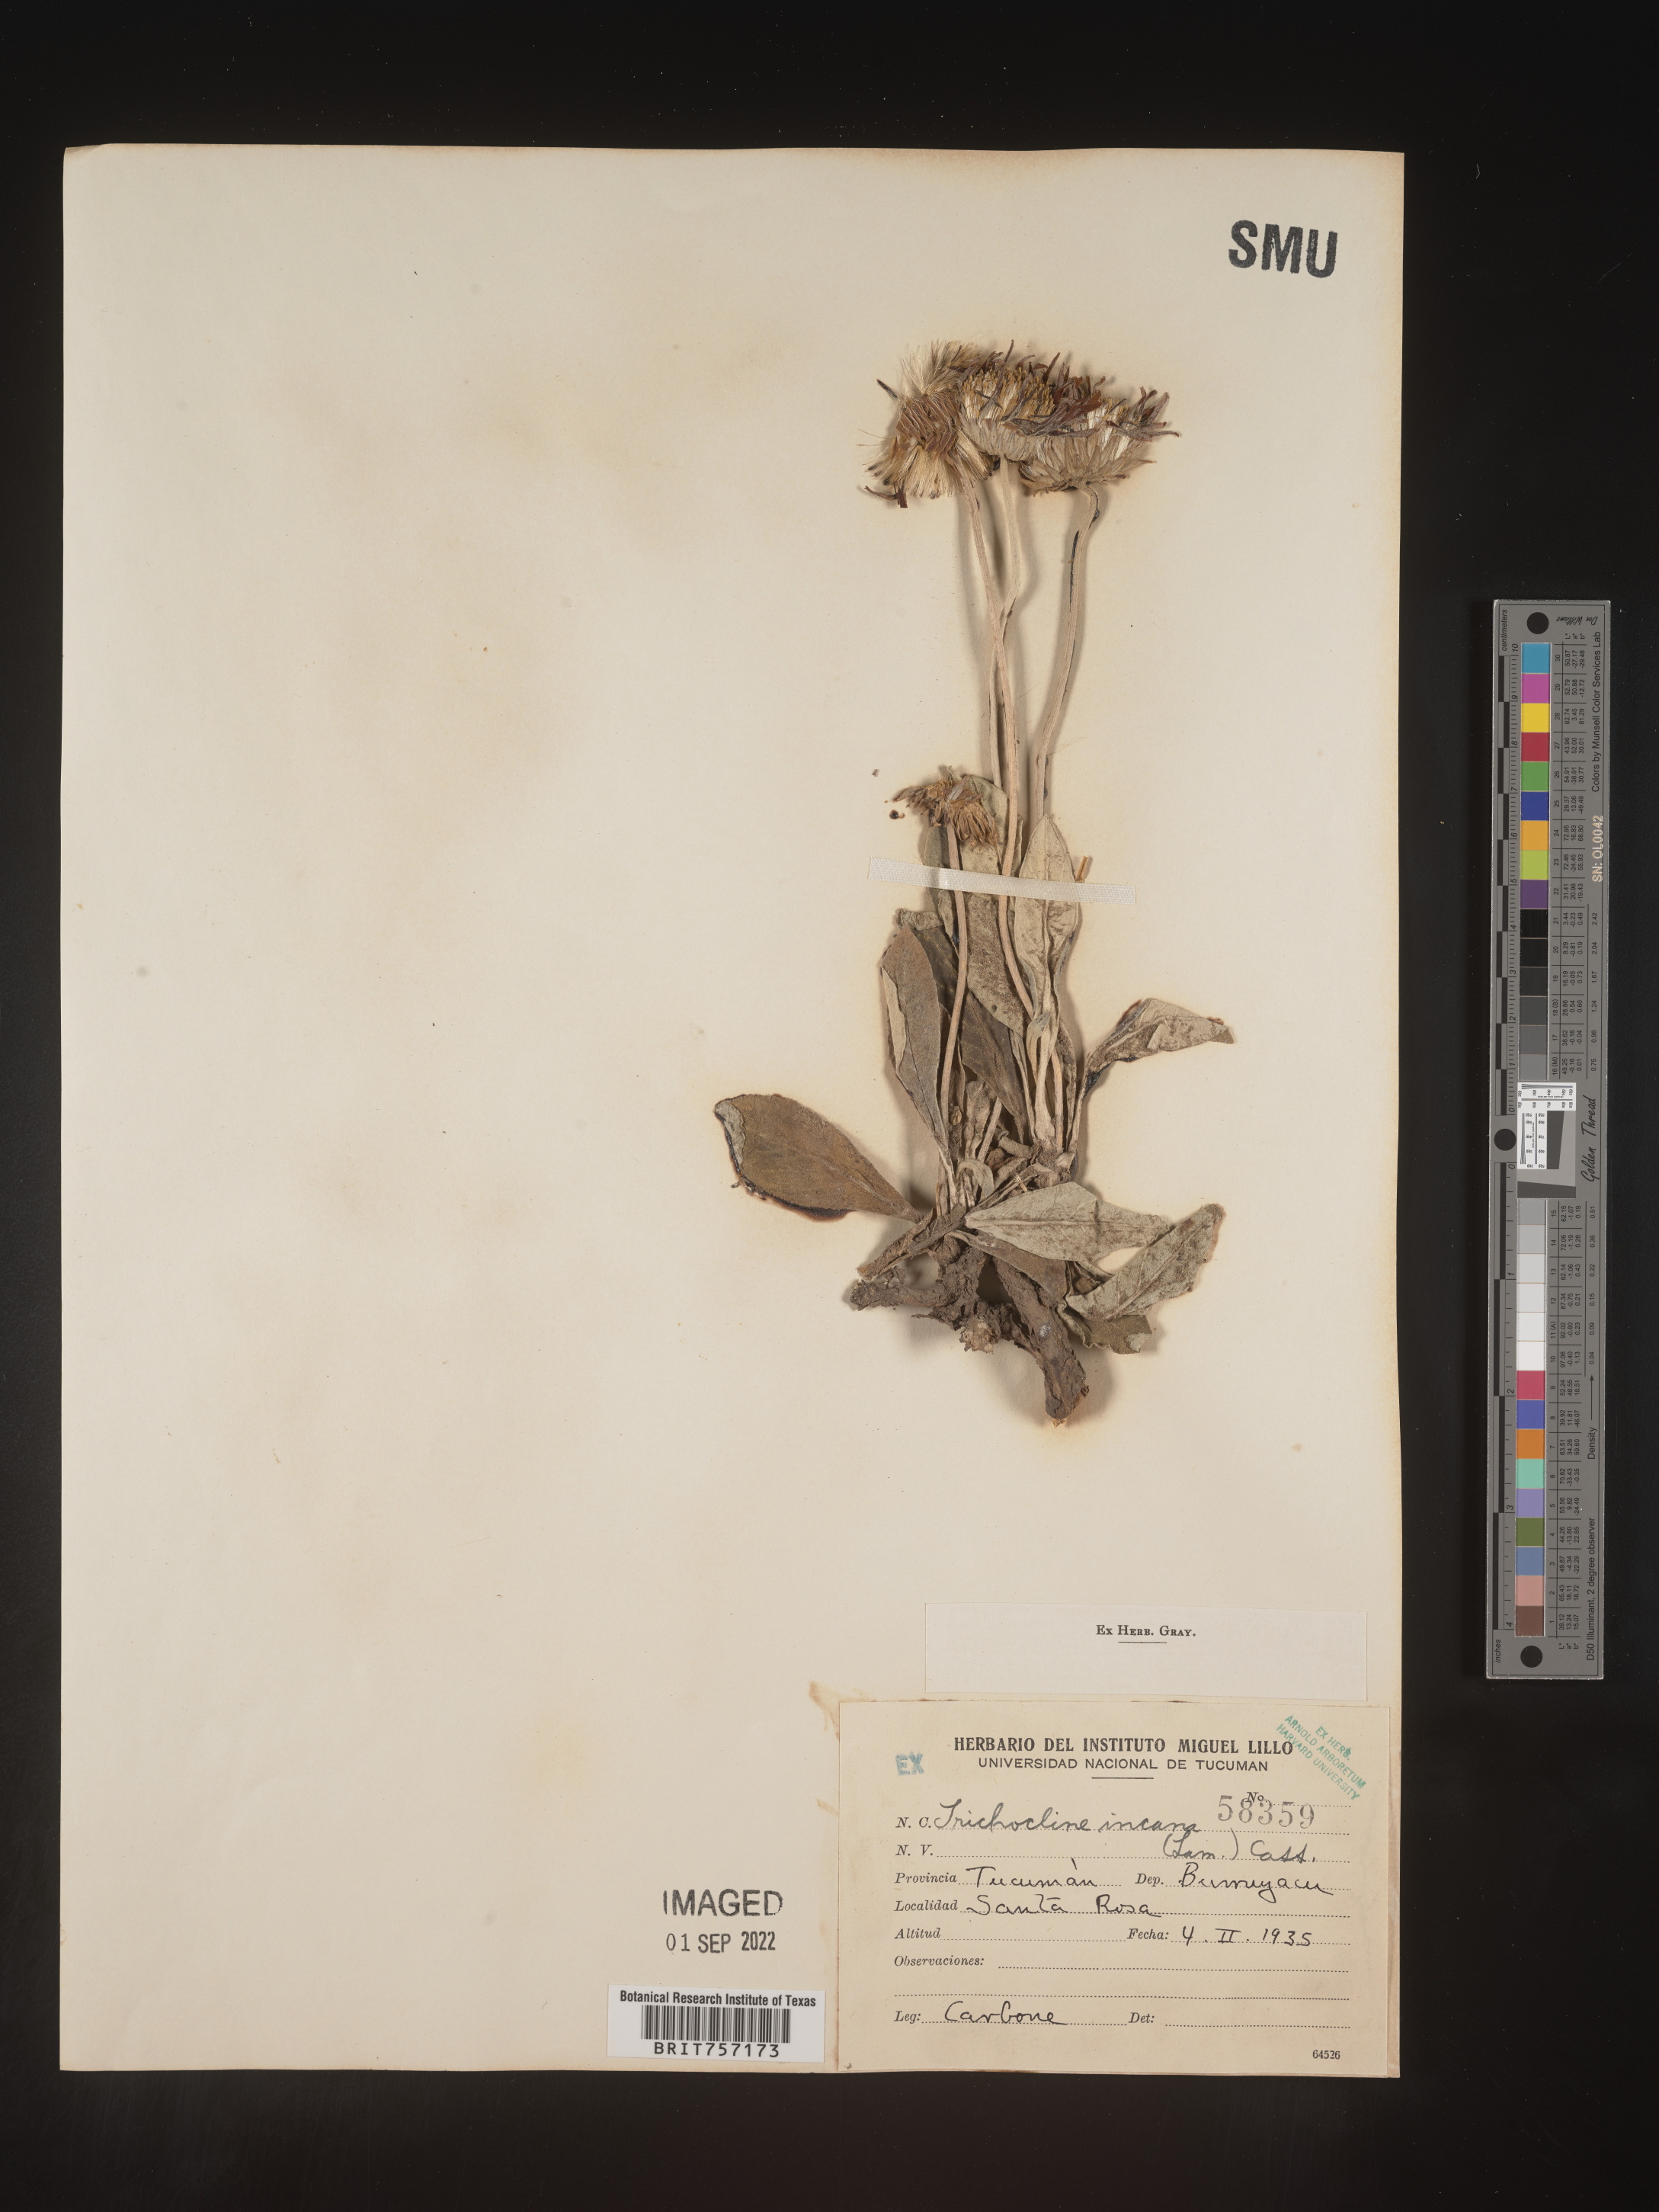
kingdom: Plantae
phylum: Tracheophyta
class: Magnoliopsida
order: Asterales
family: Asteraceae
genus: Trichocline
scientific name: Trichocline
